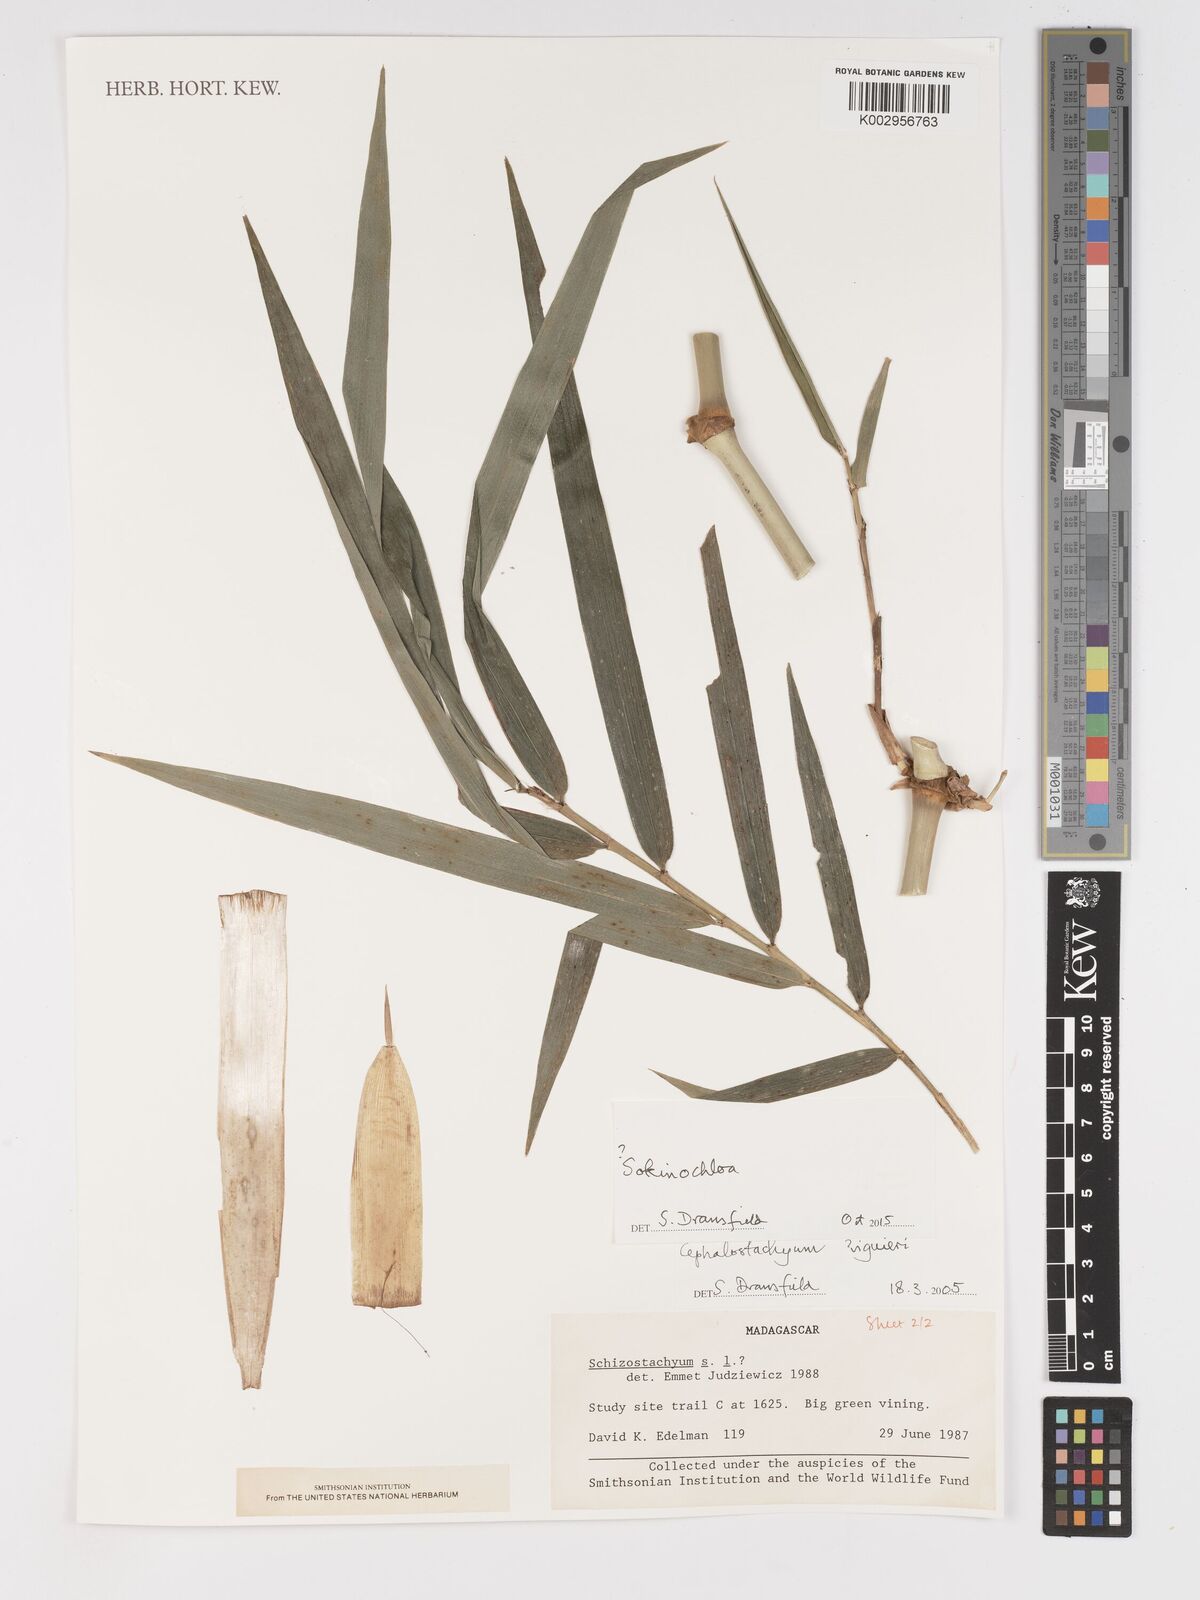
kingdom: Plantae
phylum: Tracheophyta
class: Liliopsida
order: Poales
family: Poaceae
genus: Sokinochloa
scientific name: Sokinochloa
